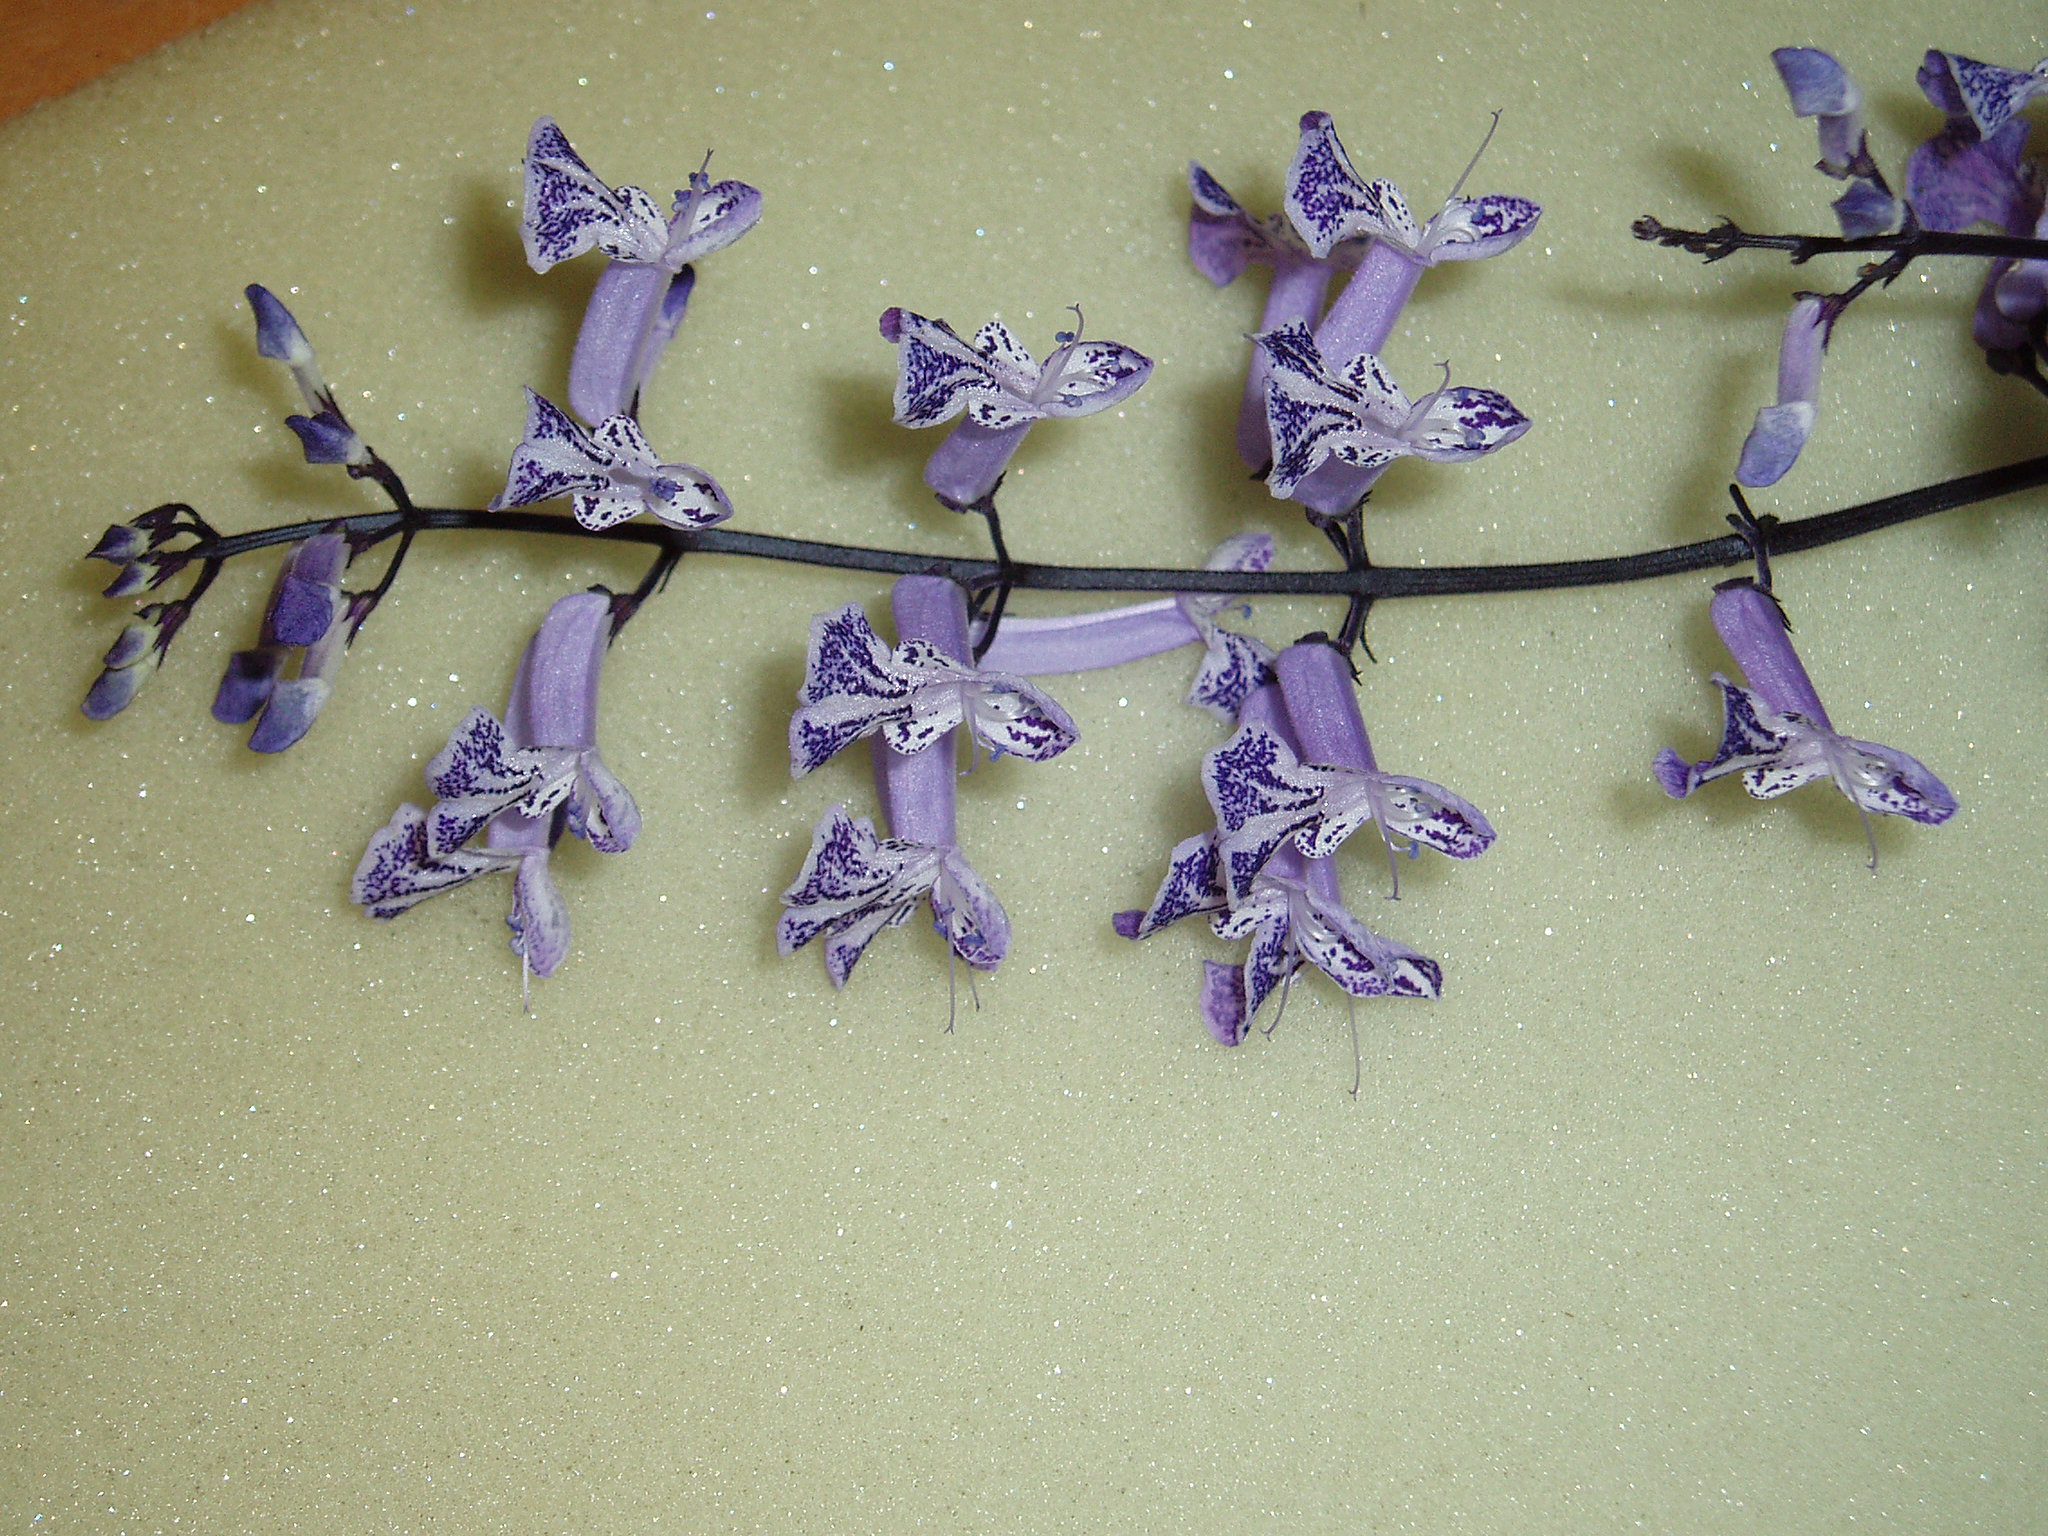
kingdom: Plantae
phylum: Tracheophyta
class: Magnoliopsida
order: Lamiales
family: Lamiaceae
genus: Plectranthus
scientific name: Plectranthus
